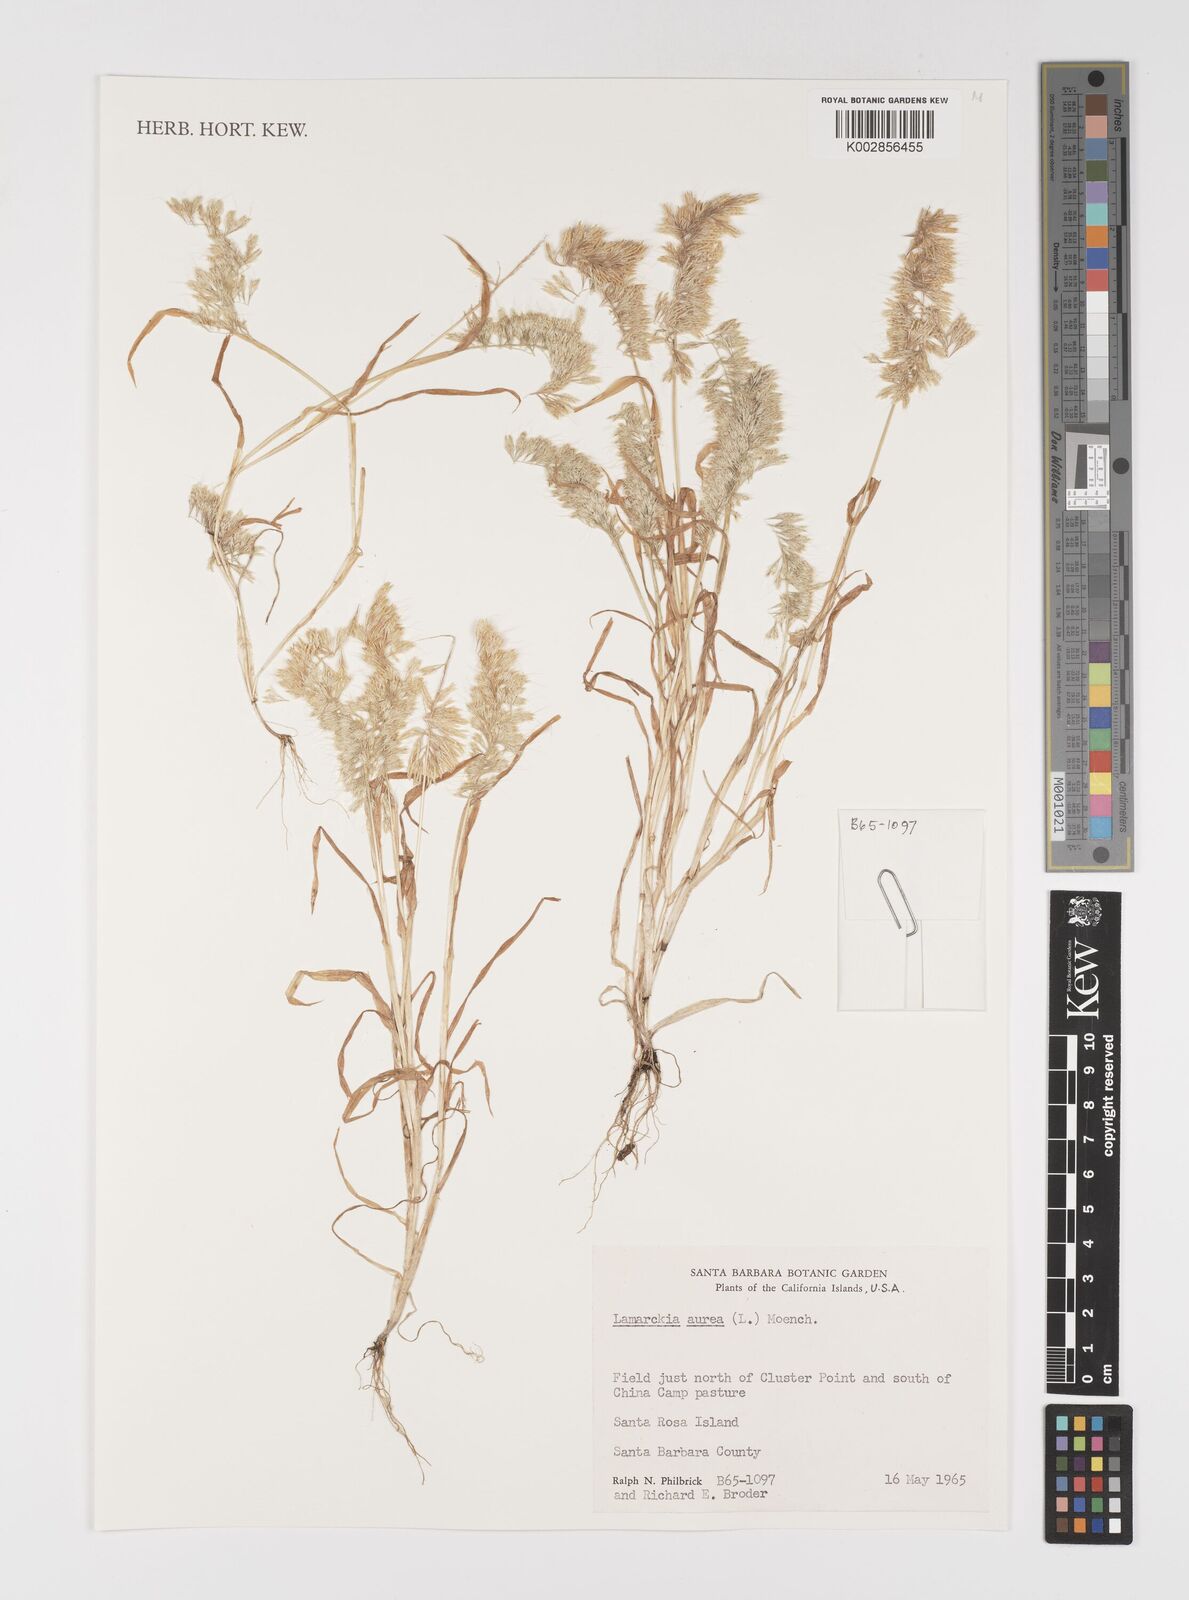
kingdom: Plantae
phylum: Tracheophyta
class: Liliopsida
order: Poales
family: Poaceae
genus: Lamarckia
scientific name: Lamarckia aurea
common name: Golden dog's-tail
